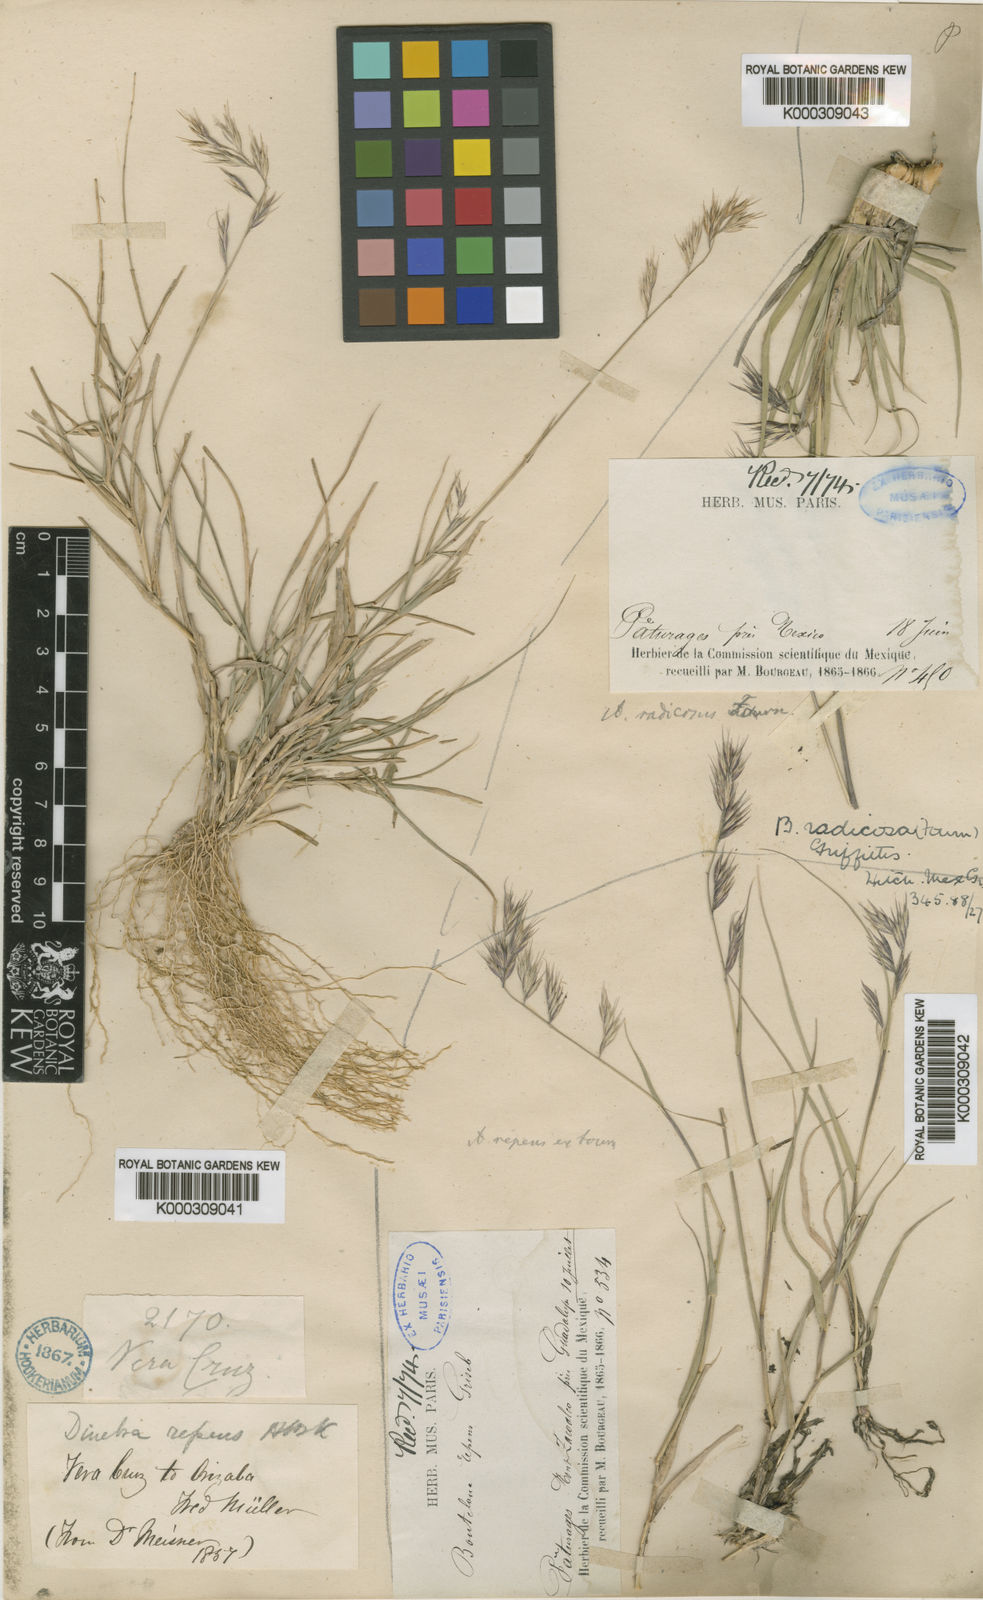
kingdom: Plantae
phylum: Tracheophyta
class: Liliopsida
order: Poales
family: Poaceae
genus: Bouteloua
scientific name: Bouteloua radicosa
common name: Purple grama
